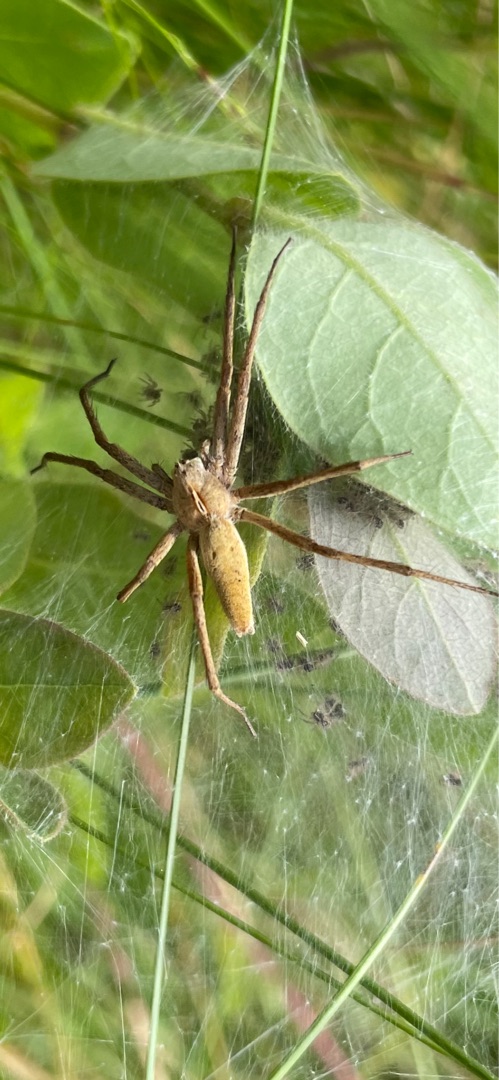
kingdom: Animalia
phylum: Arthropoda
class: Arachnida
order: Araneae
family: Pisauridae
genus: Pisaura
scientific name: Pisaura mirabilis
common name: Almindelig rovedderkop
